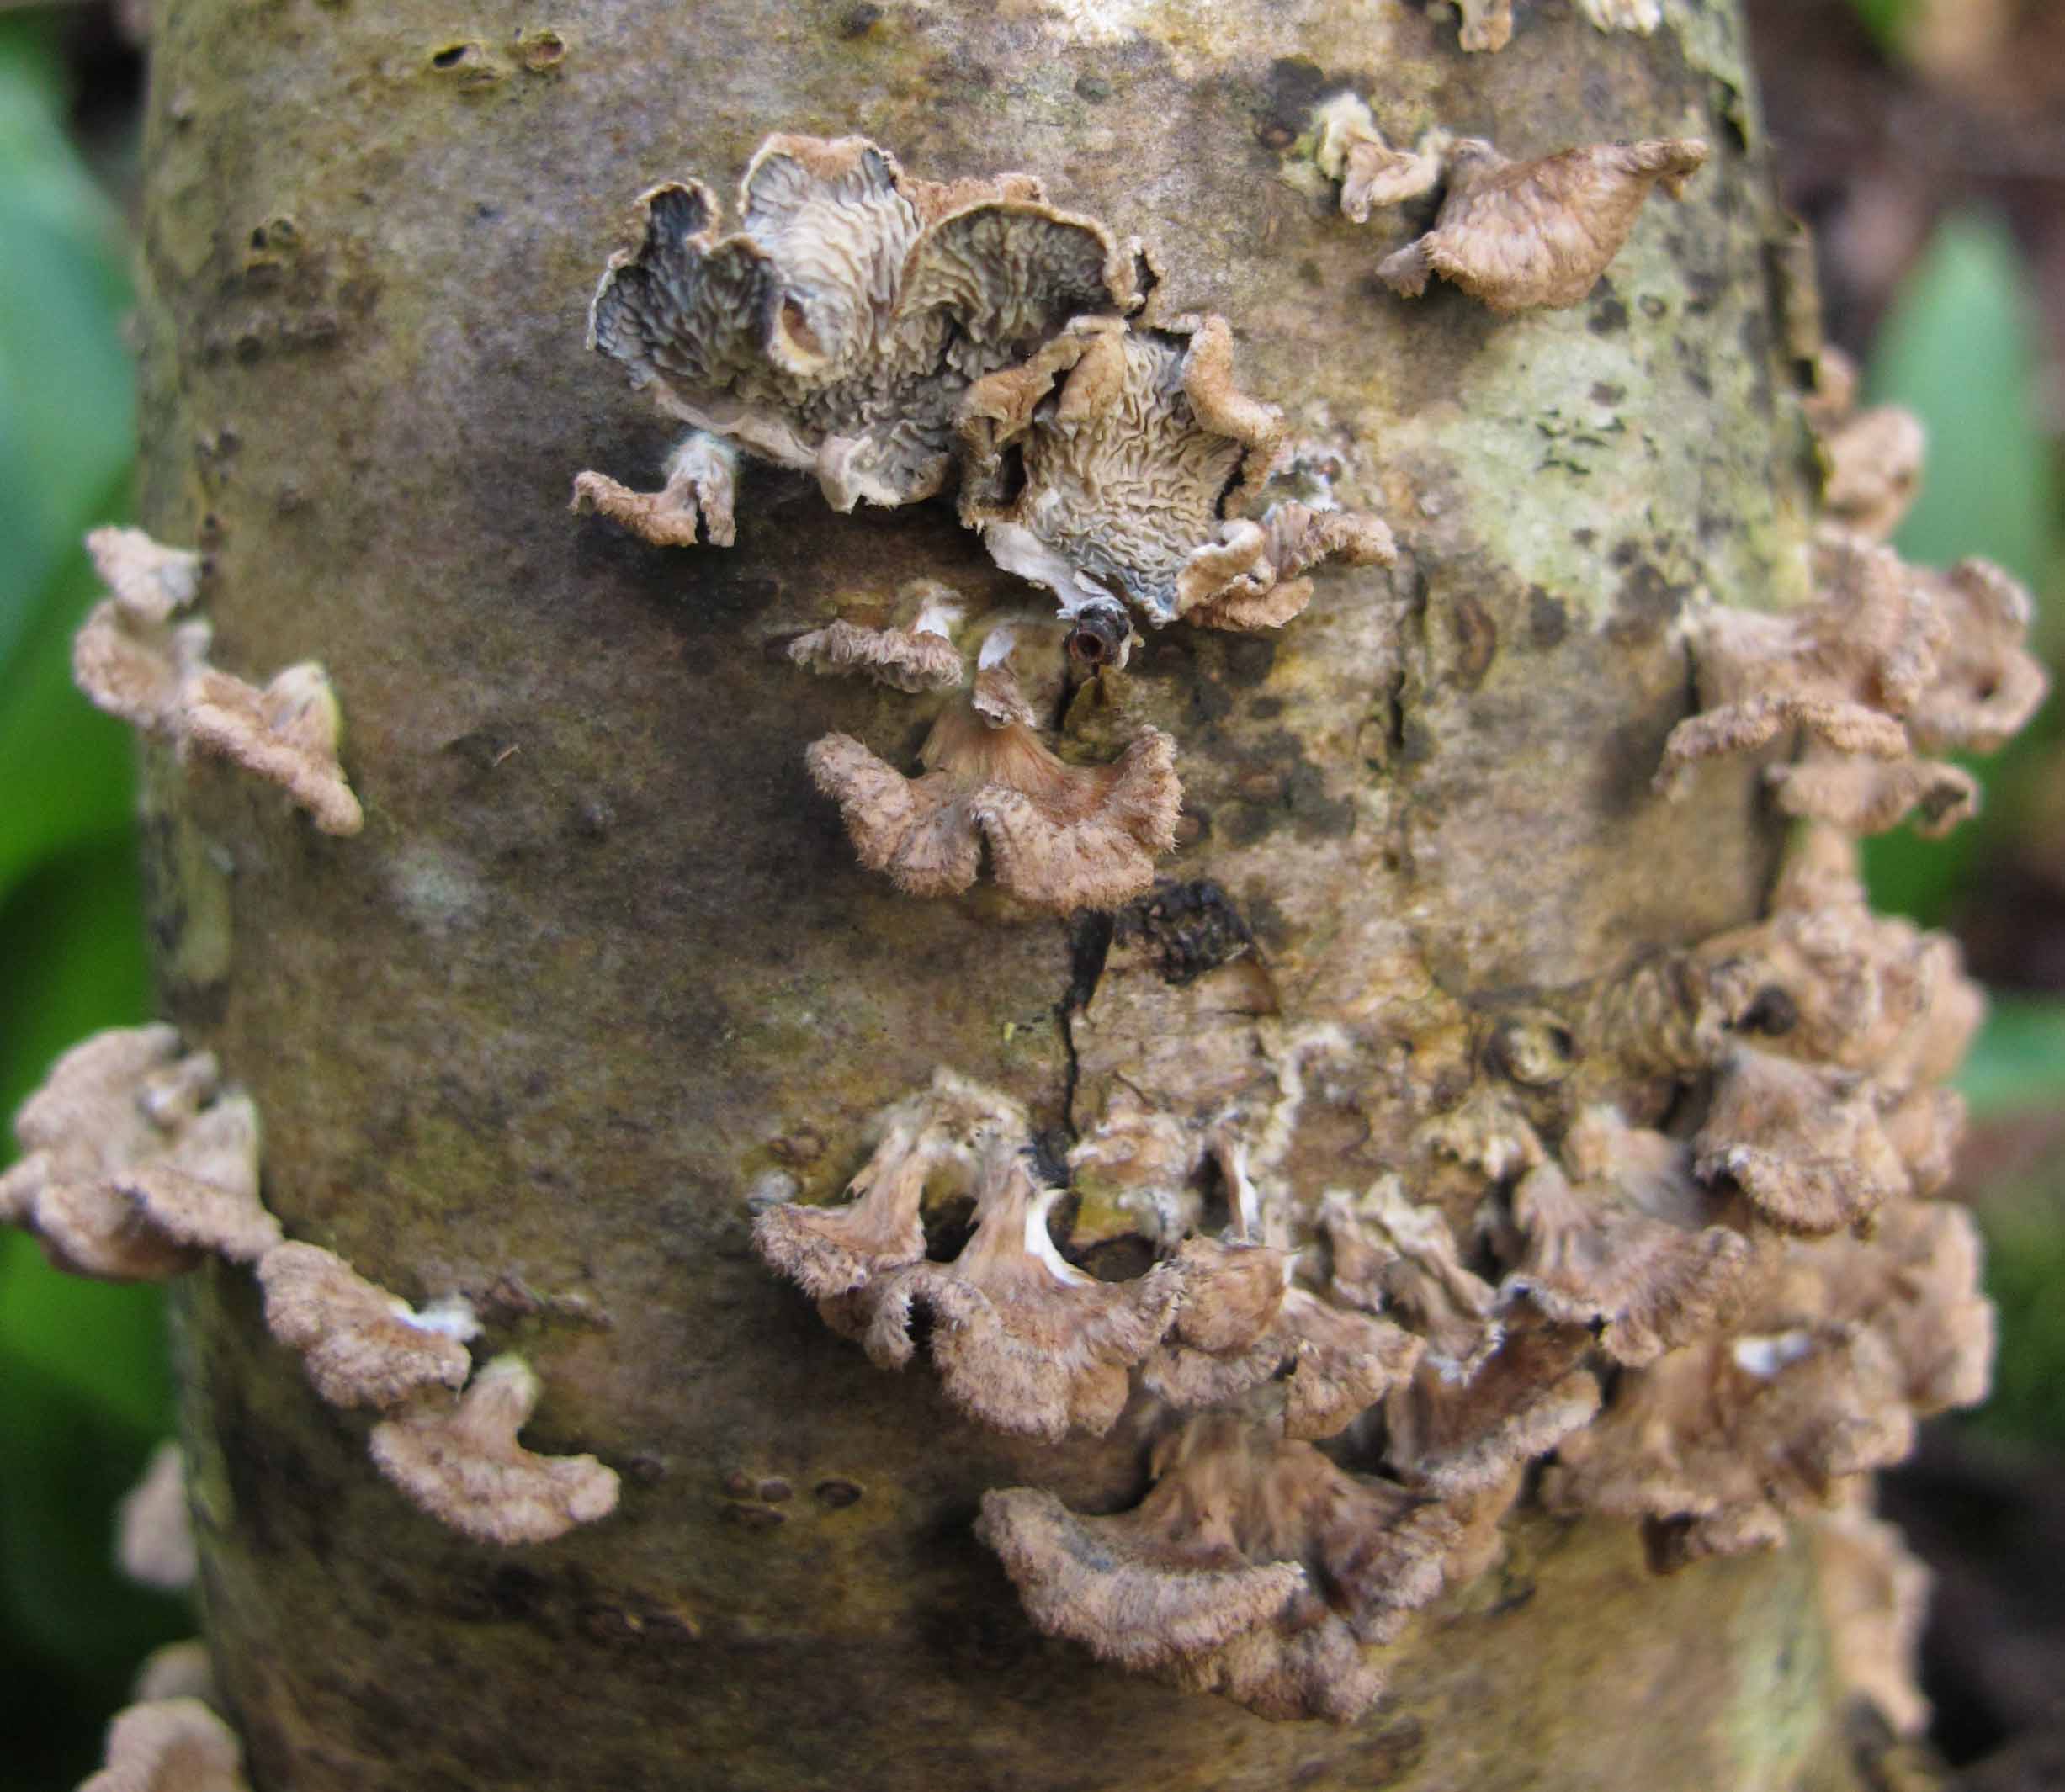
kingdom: Fungi
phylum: Basidiomycota
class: Agaricomycetes
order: Amylocorticiales
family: Amylocorticiaceae
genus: Plicaturopsis
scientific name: Plicaturopsis crispa
